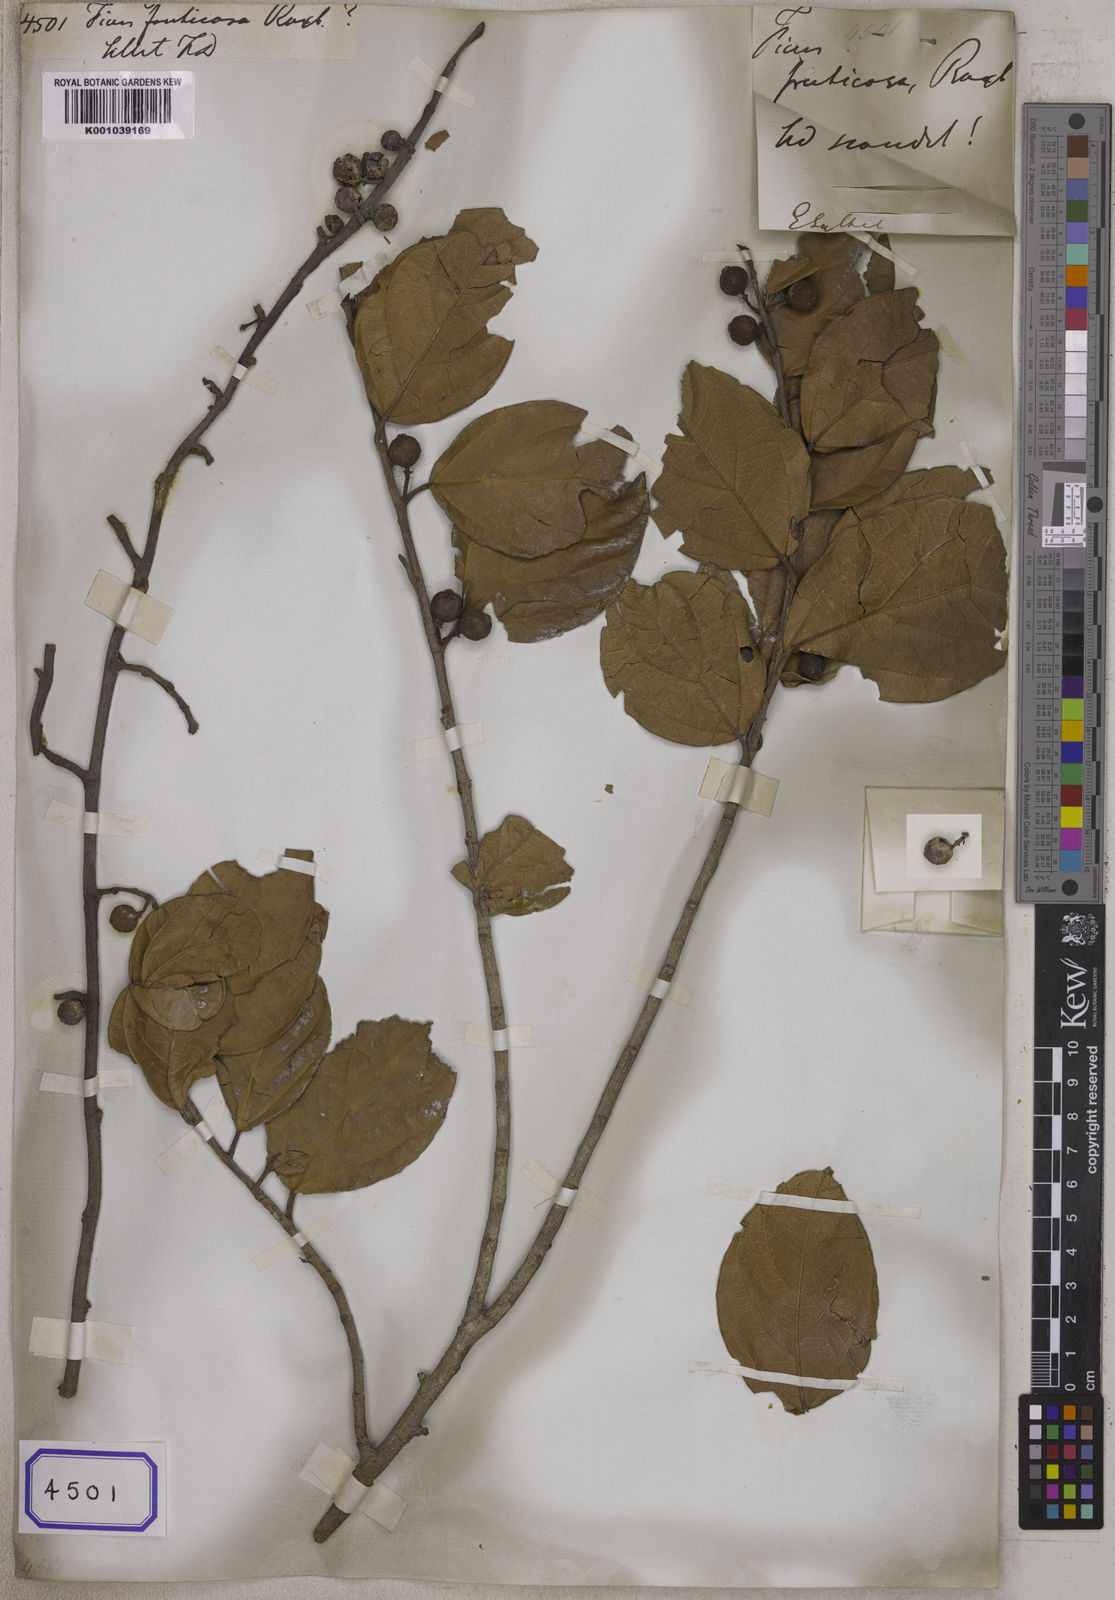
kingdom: Plantae
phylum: Tracheophyta
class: Magnoliopsida
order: Rosales
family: Moraceae
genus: Ficus
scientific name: Ficus
